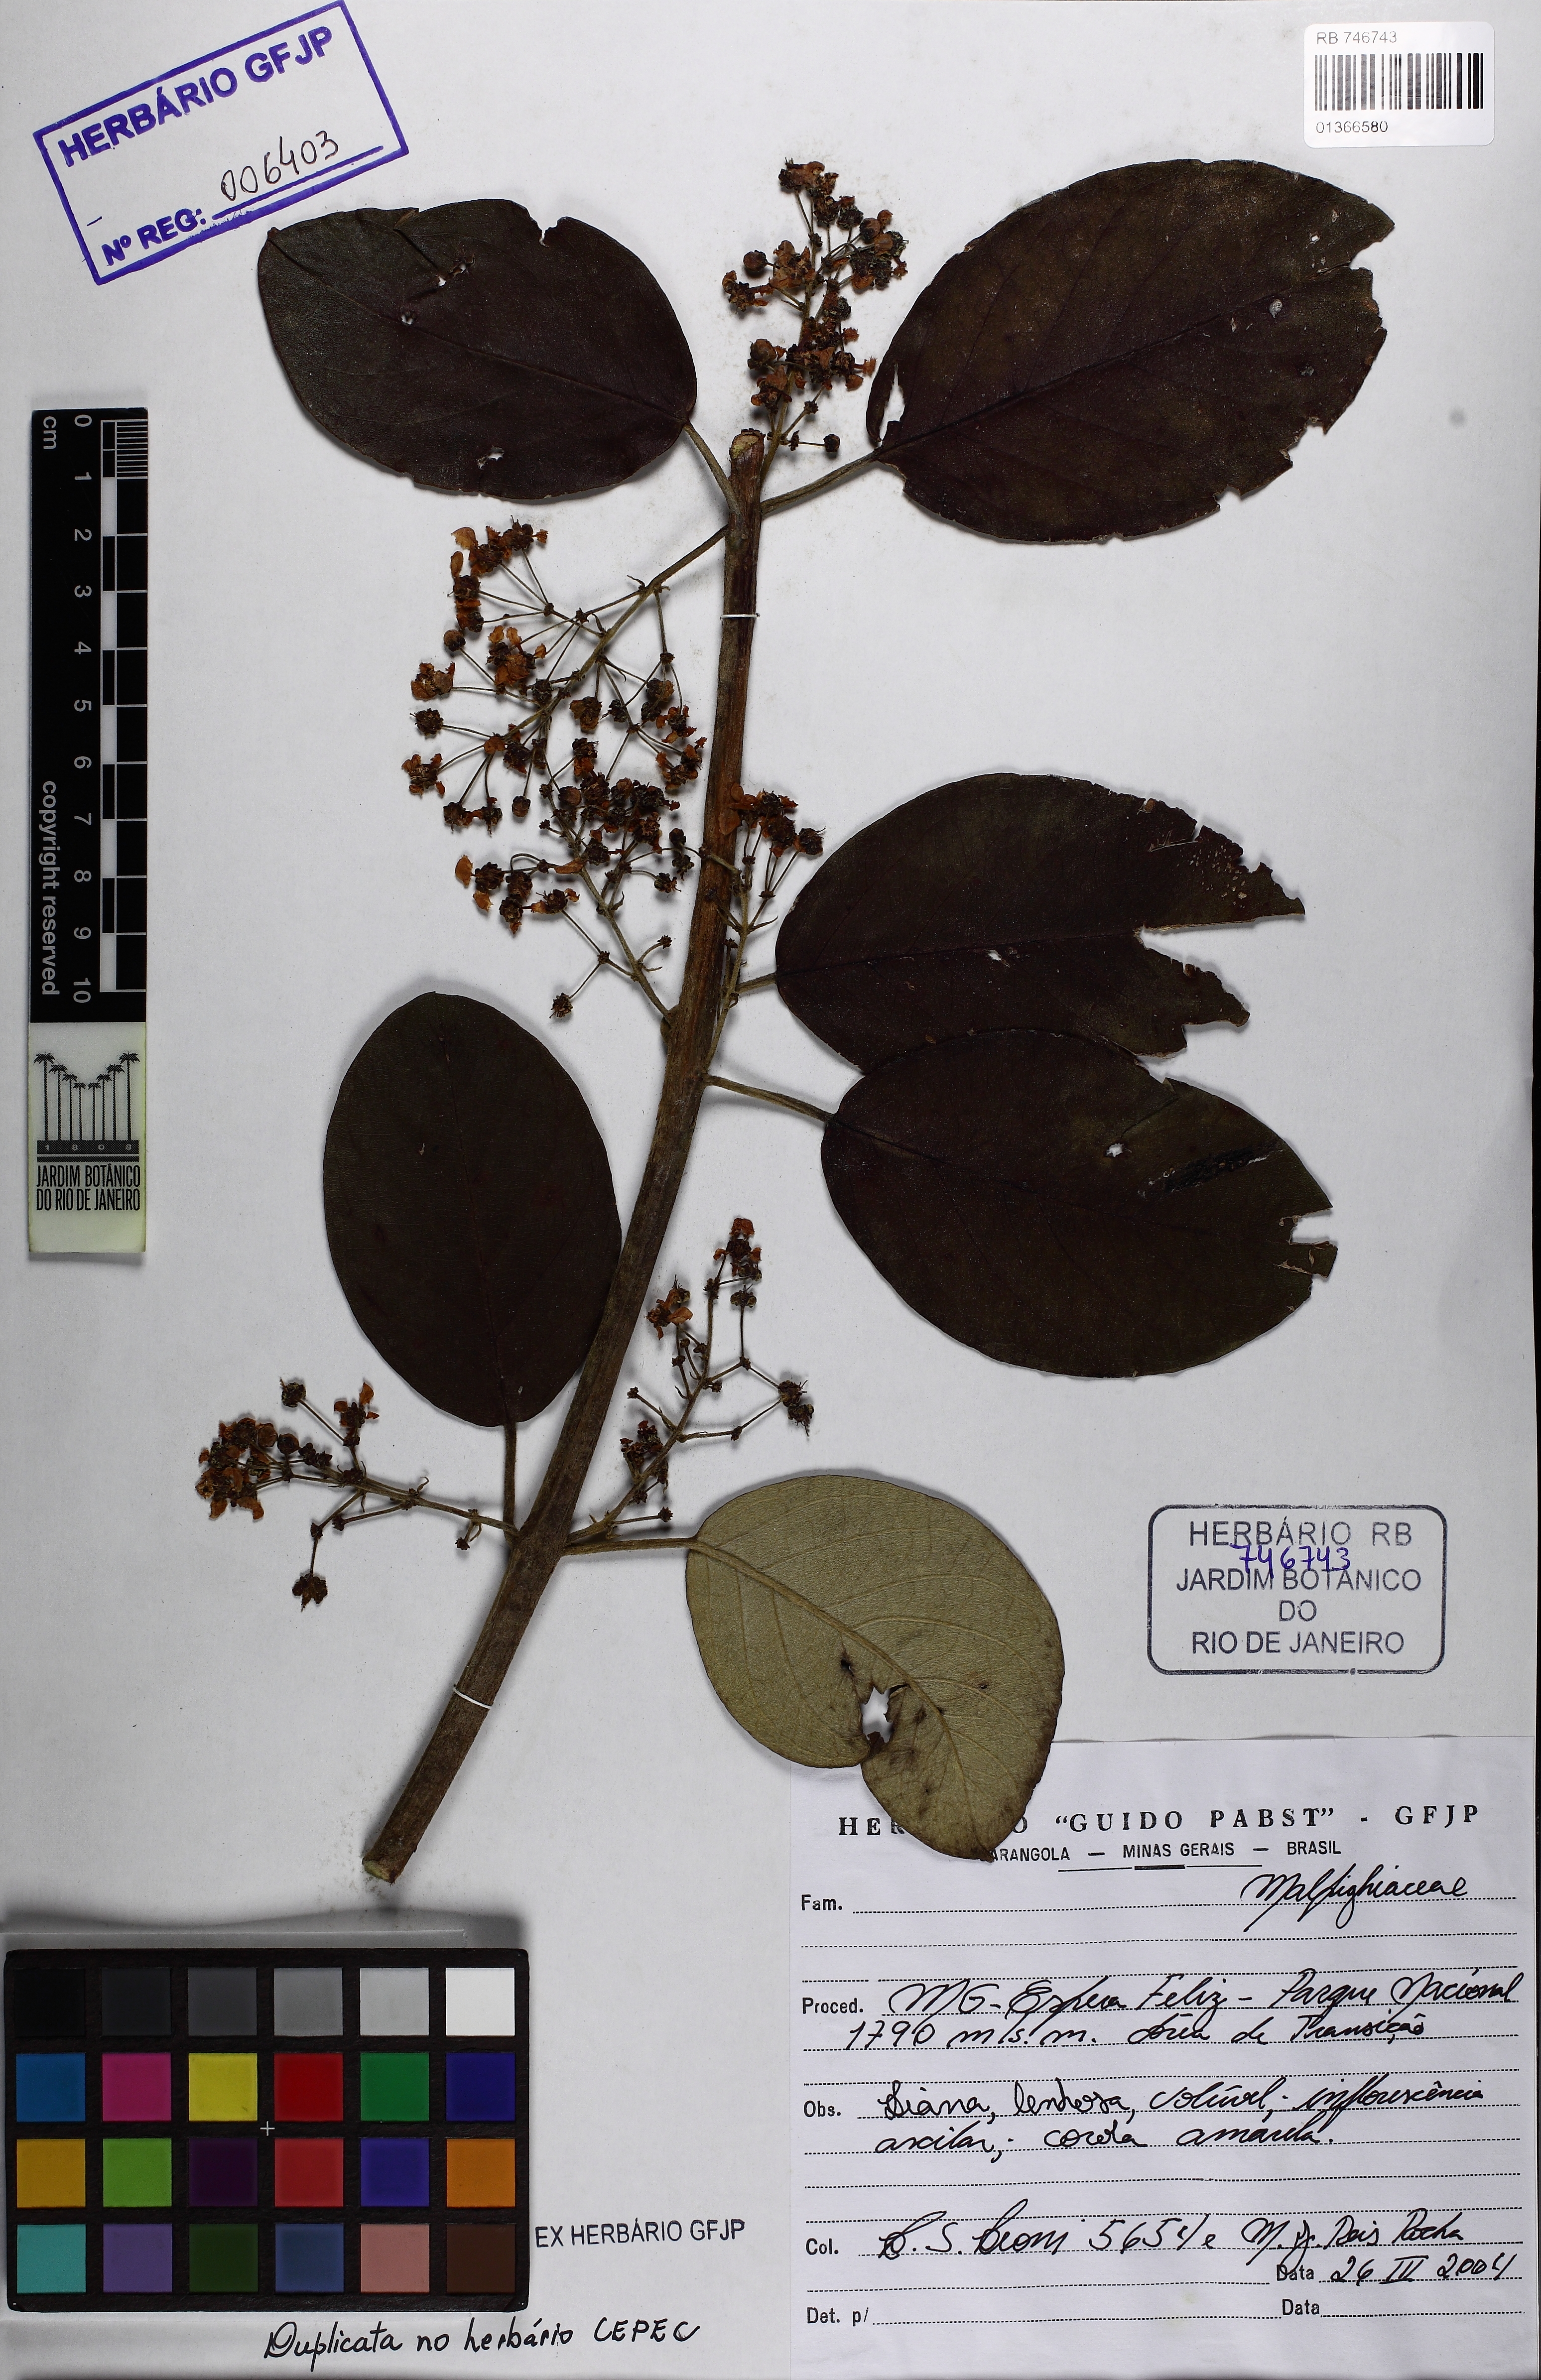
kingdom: Plantae
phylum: Tracheophyta
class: Magnoliopsida
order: Malpighiales
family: Malpighiaceae
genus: Banisteriopsis
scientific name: Banisteriopsis
